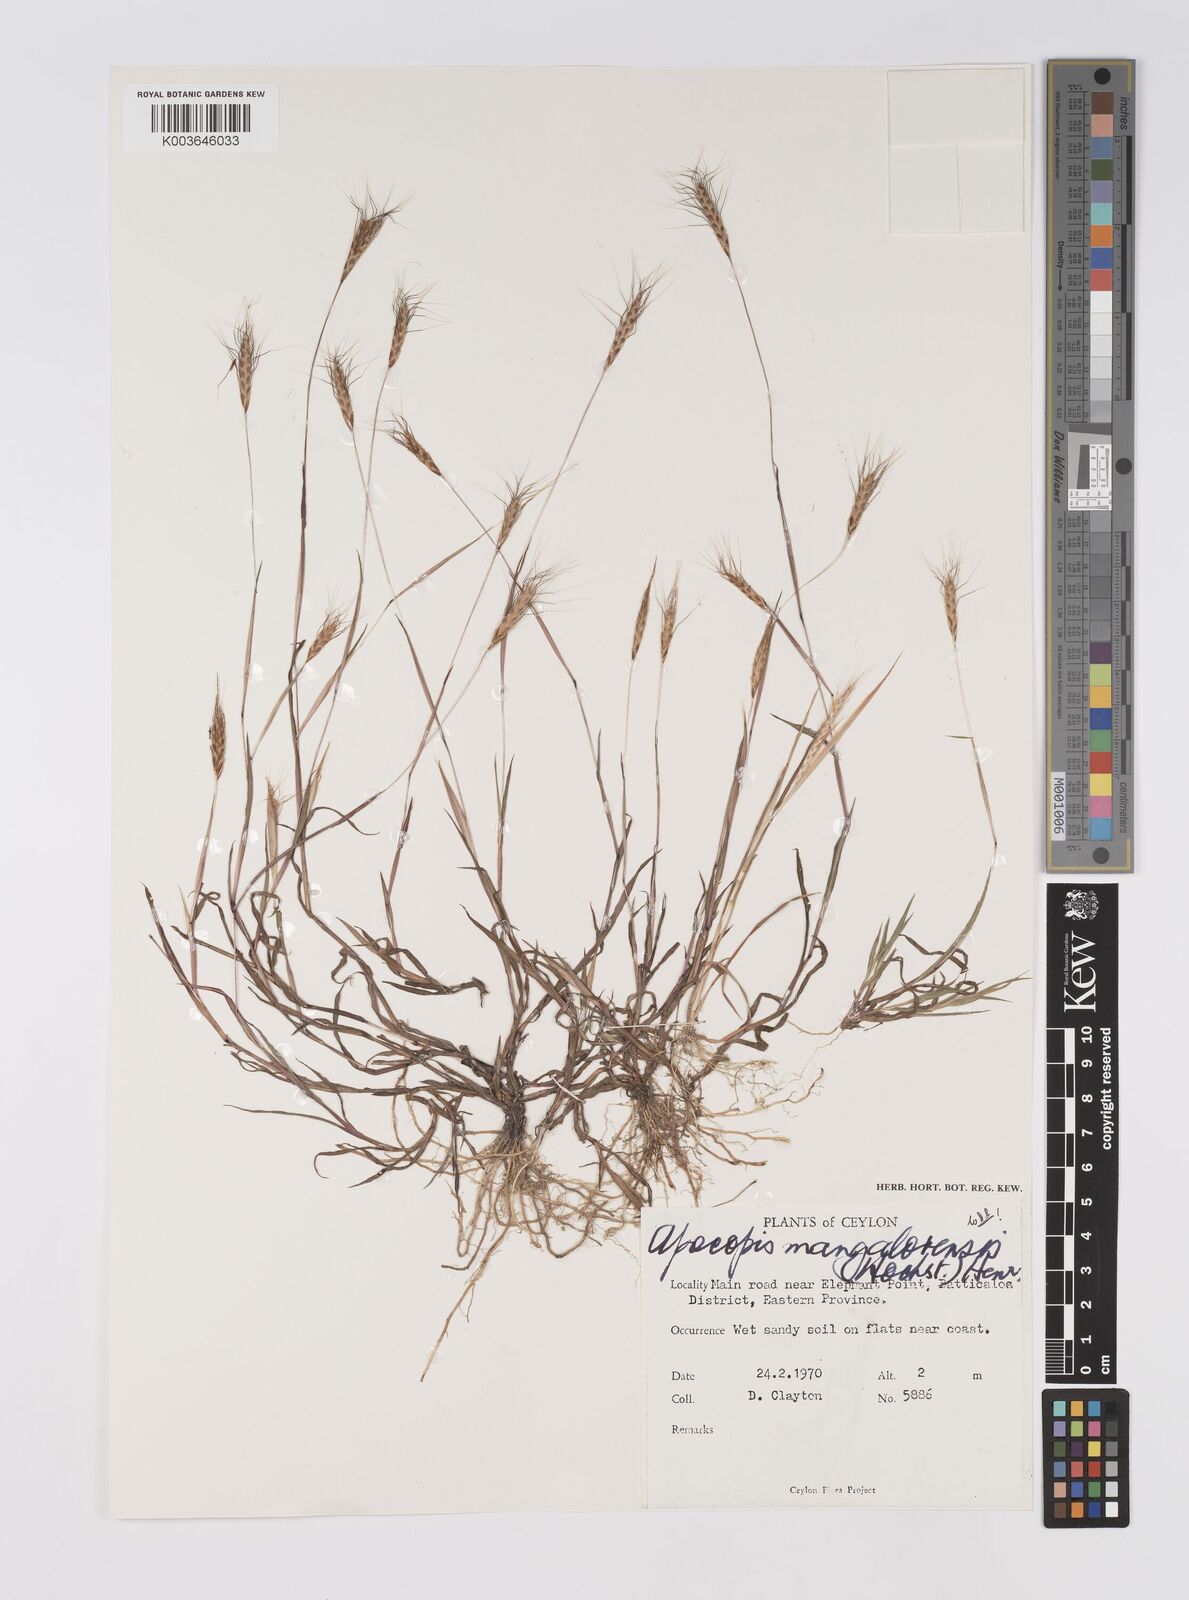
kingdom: Plantae
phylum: Tracheophyta
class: Liliopsida
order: Poales
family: Poaceae
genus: Apocopis
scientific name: Apocopis mangalorensis
